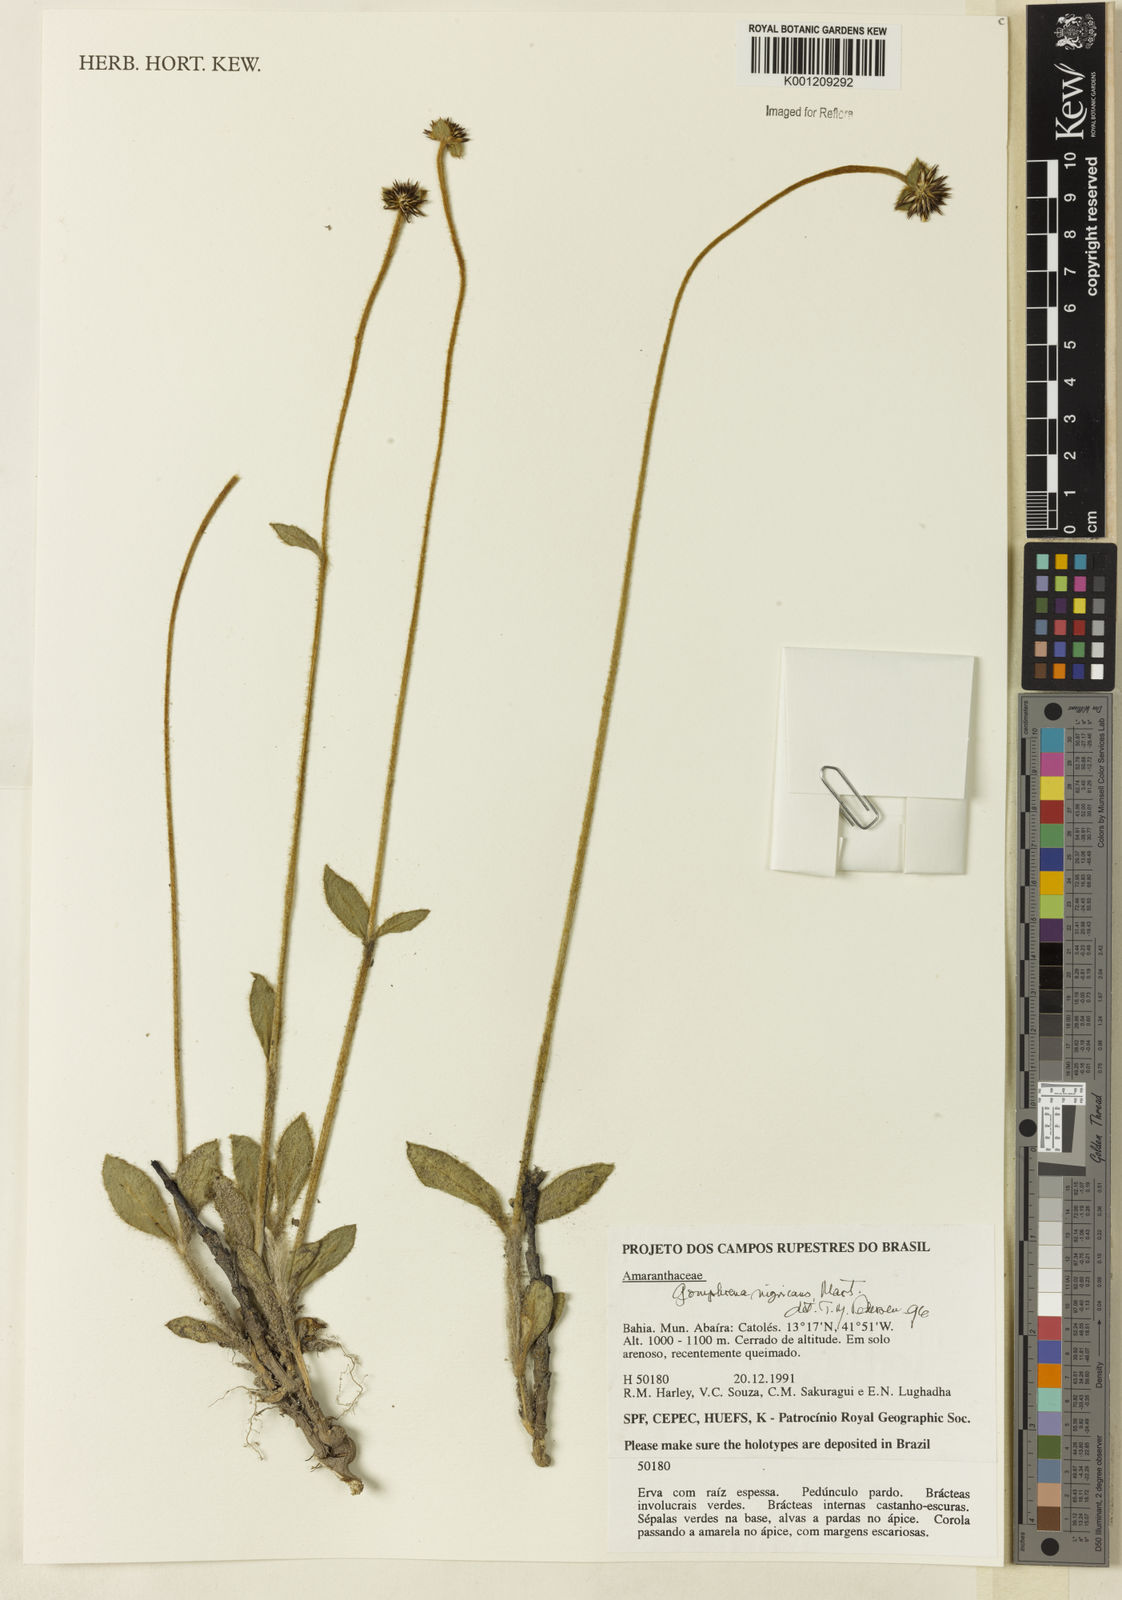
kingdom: Plantae
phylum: Tracheophyta
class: Magnoliopsida
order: Caryophyllales
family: Amaranthaceae
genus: Gomphrena
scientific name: Gomphrena nigricans
